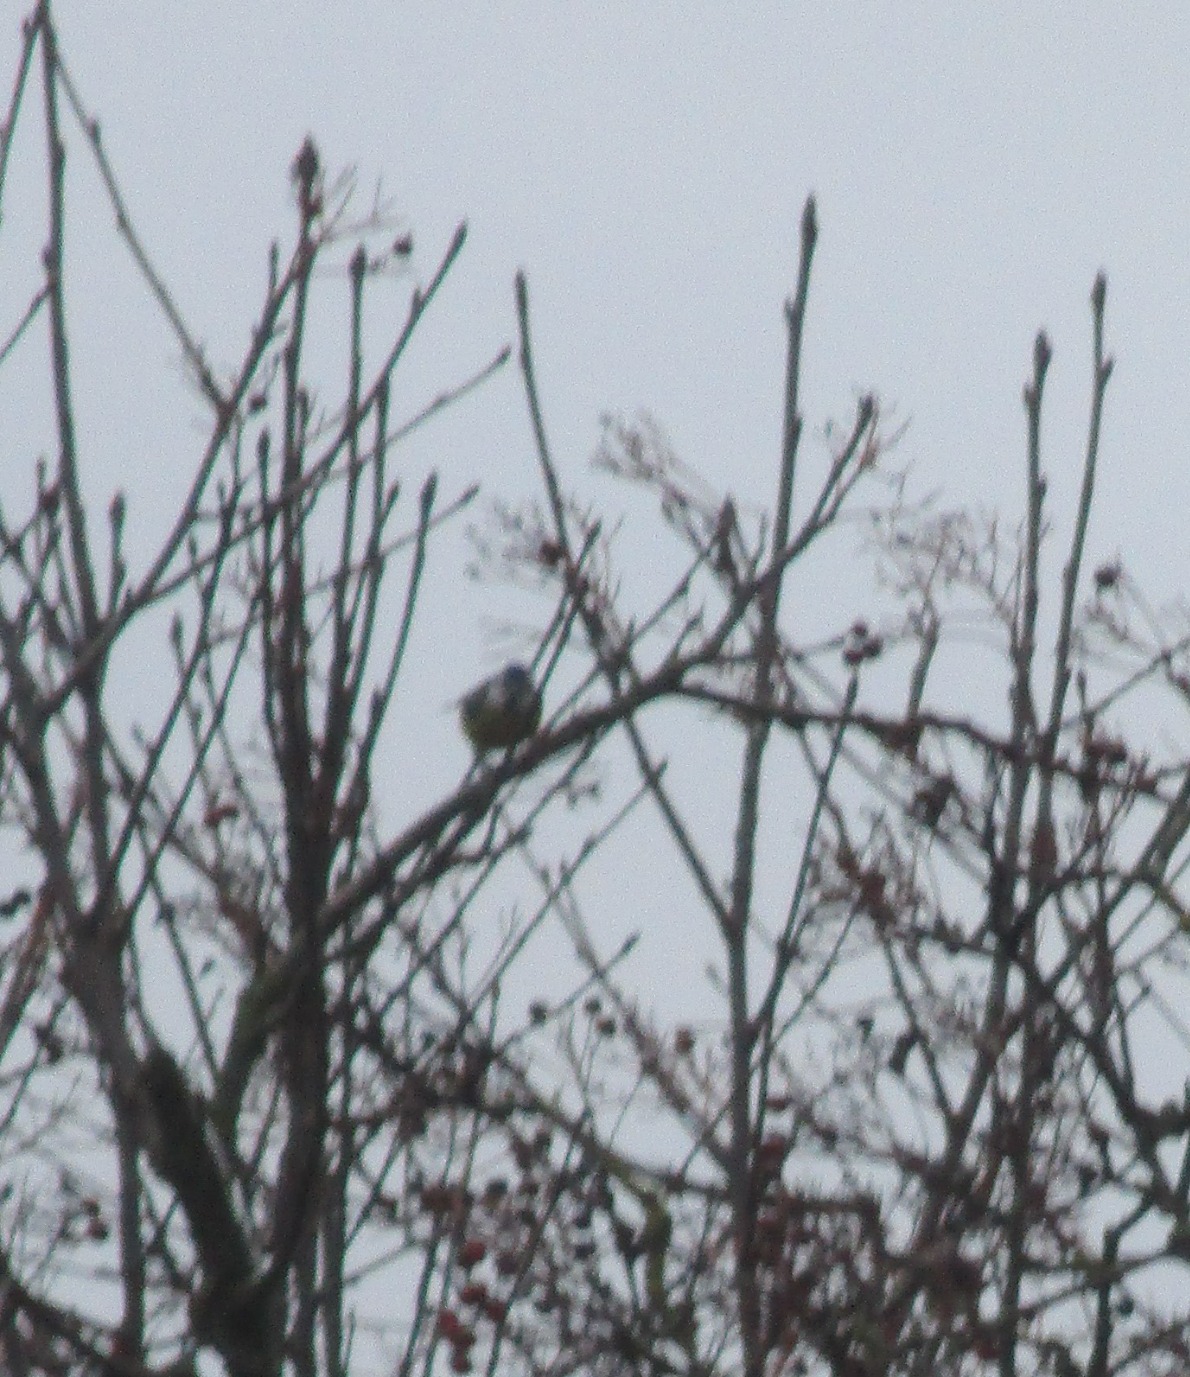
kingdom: Animalia
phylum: Chordata
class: Aves
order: Passeriformes
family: Paridae
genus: Cyanistes
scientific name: Cyanistes caeruleus
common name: Blåmejse
